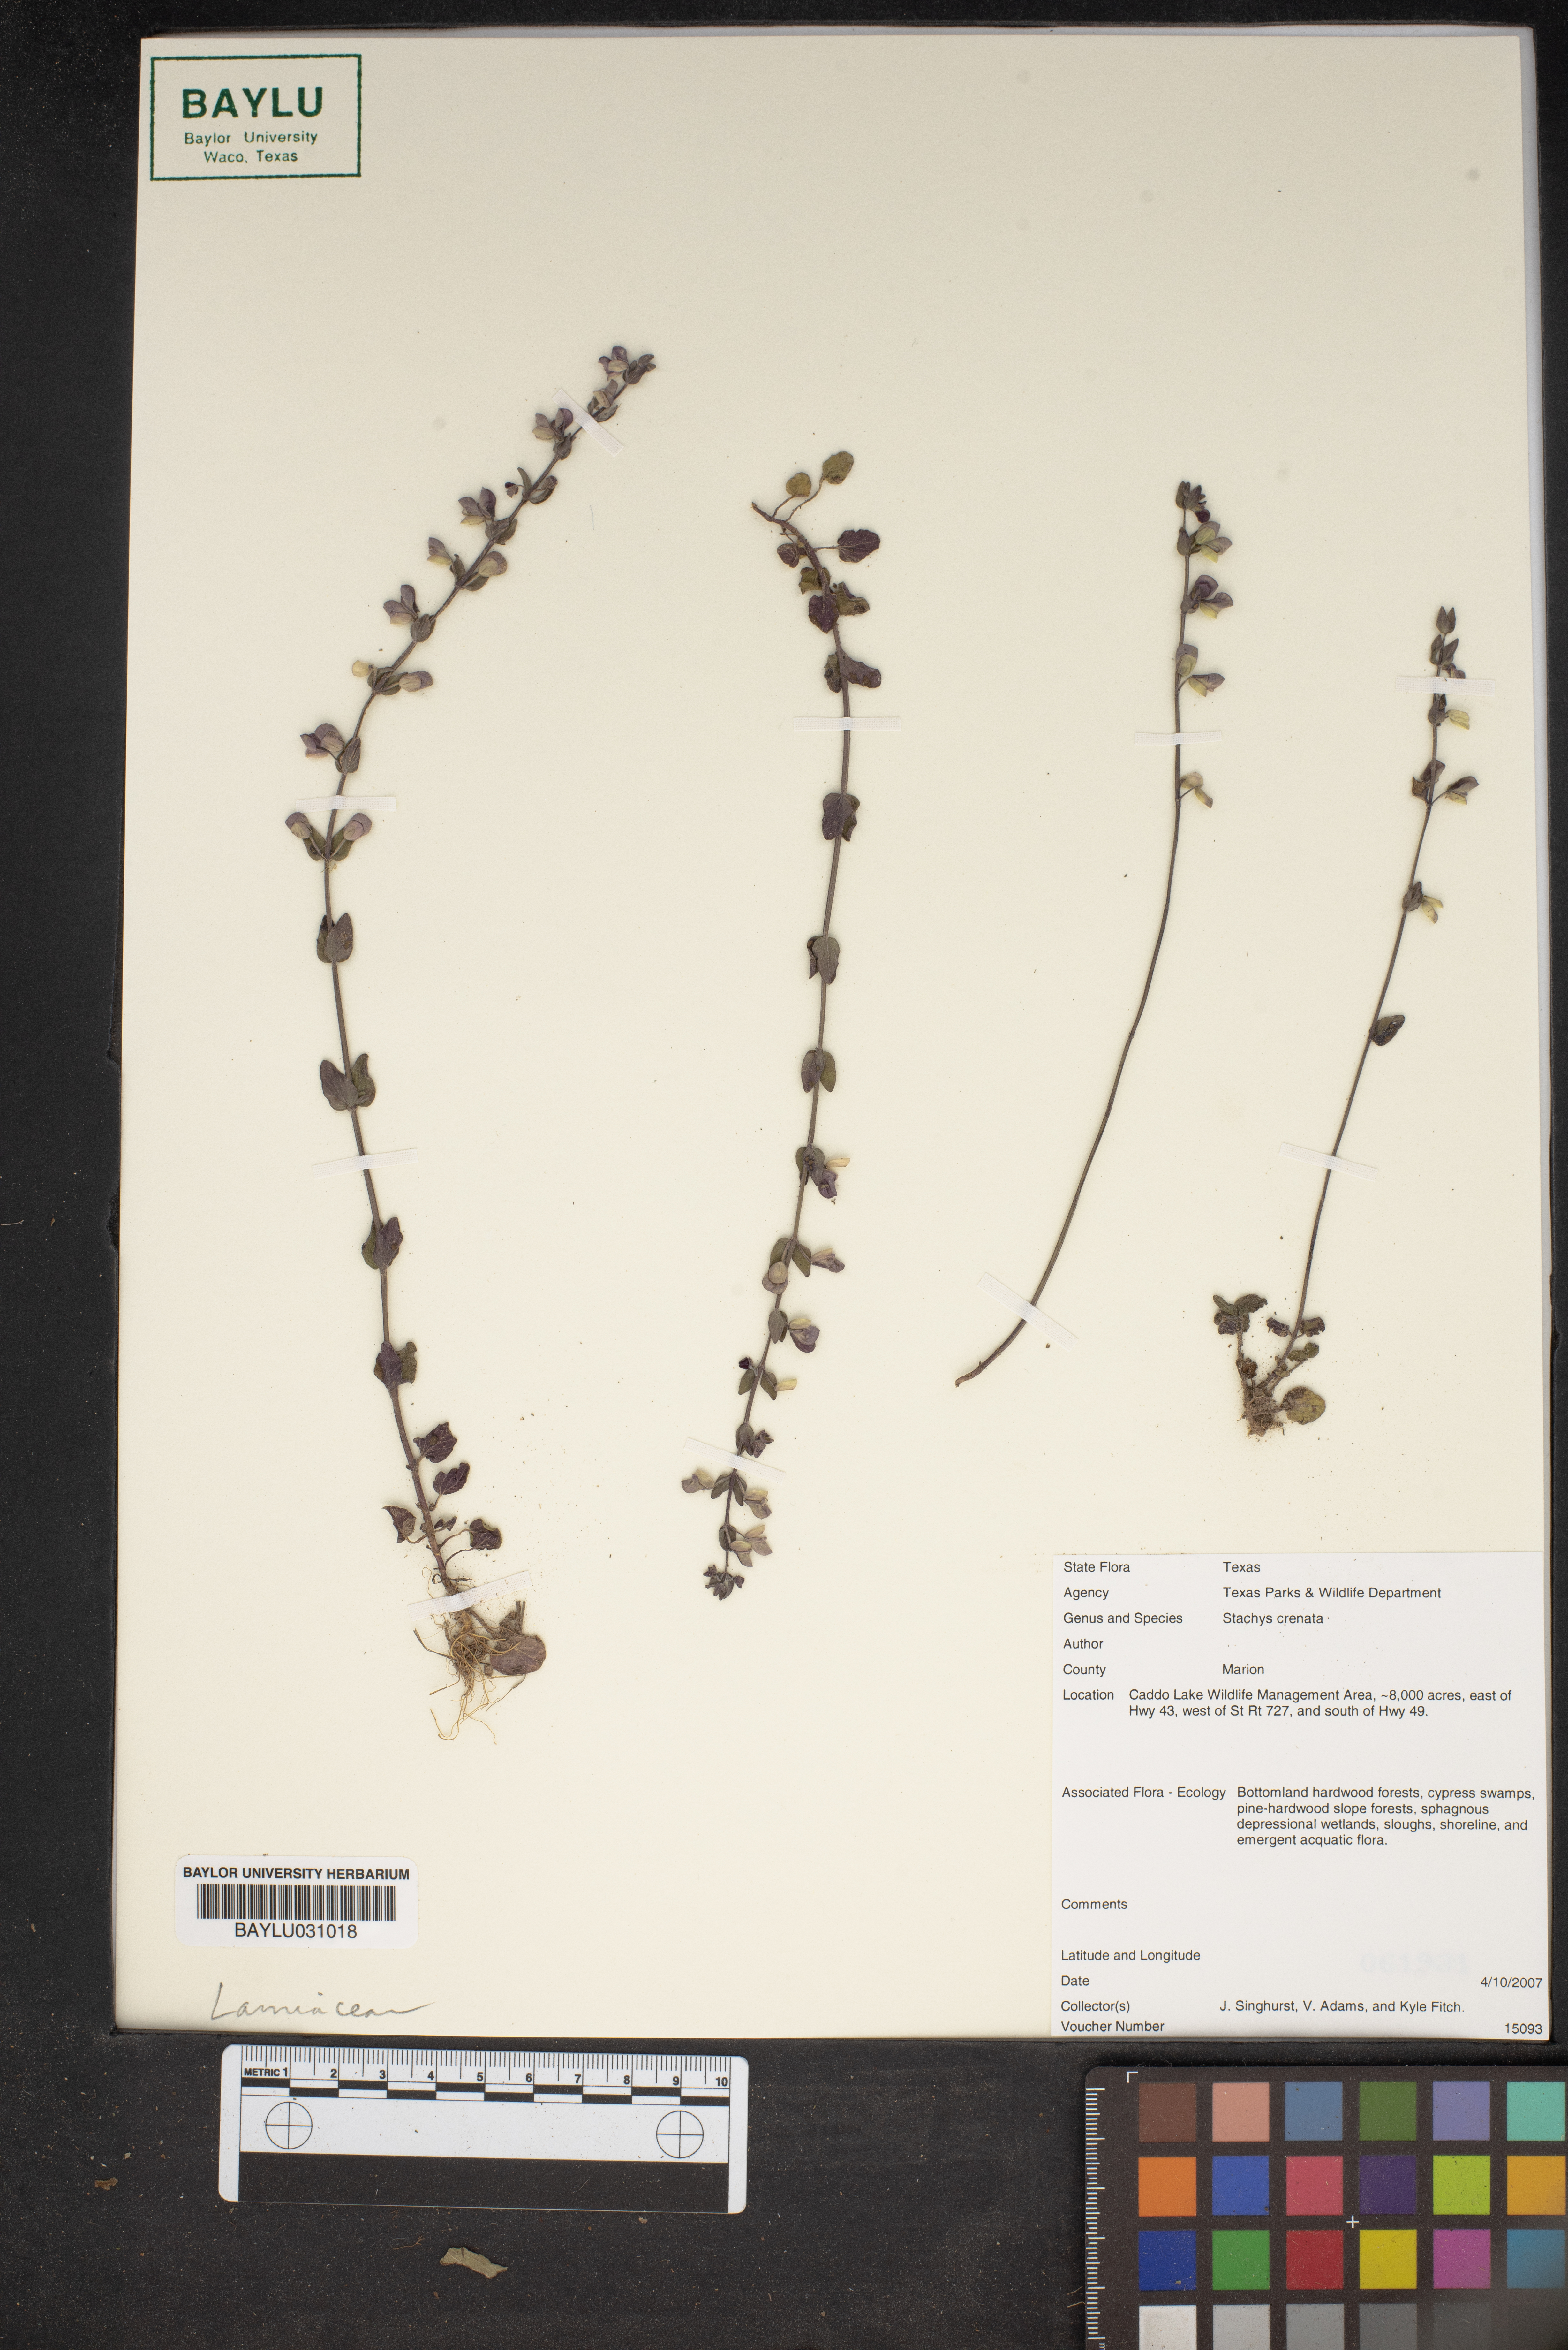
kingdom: Plantae
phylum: Tracheophyta
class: Magnoliopsida
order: Lamiales
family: Lamiaceae
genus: Stachys
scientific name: Stachys agraria
